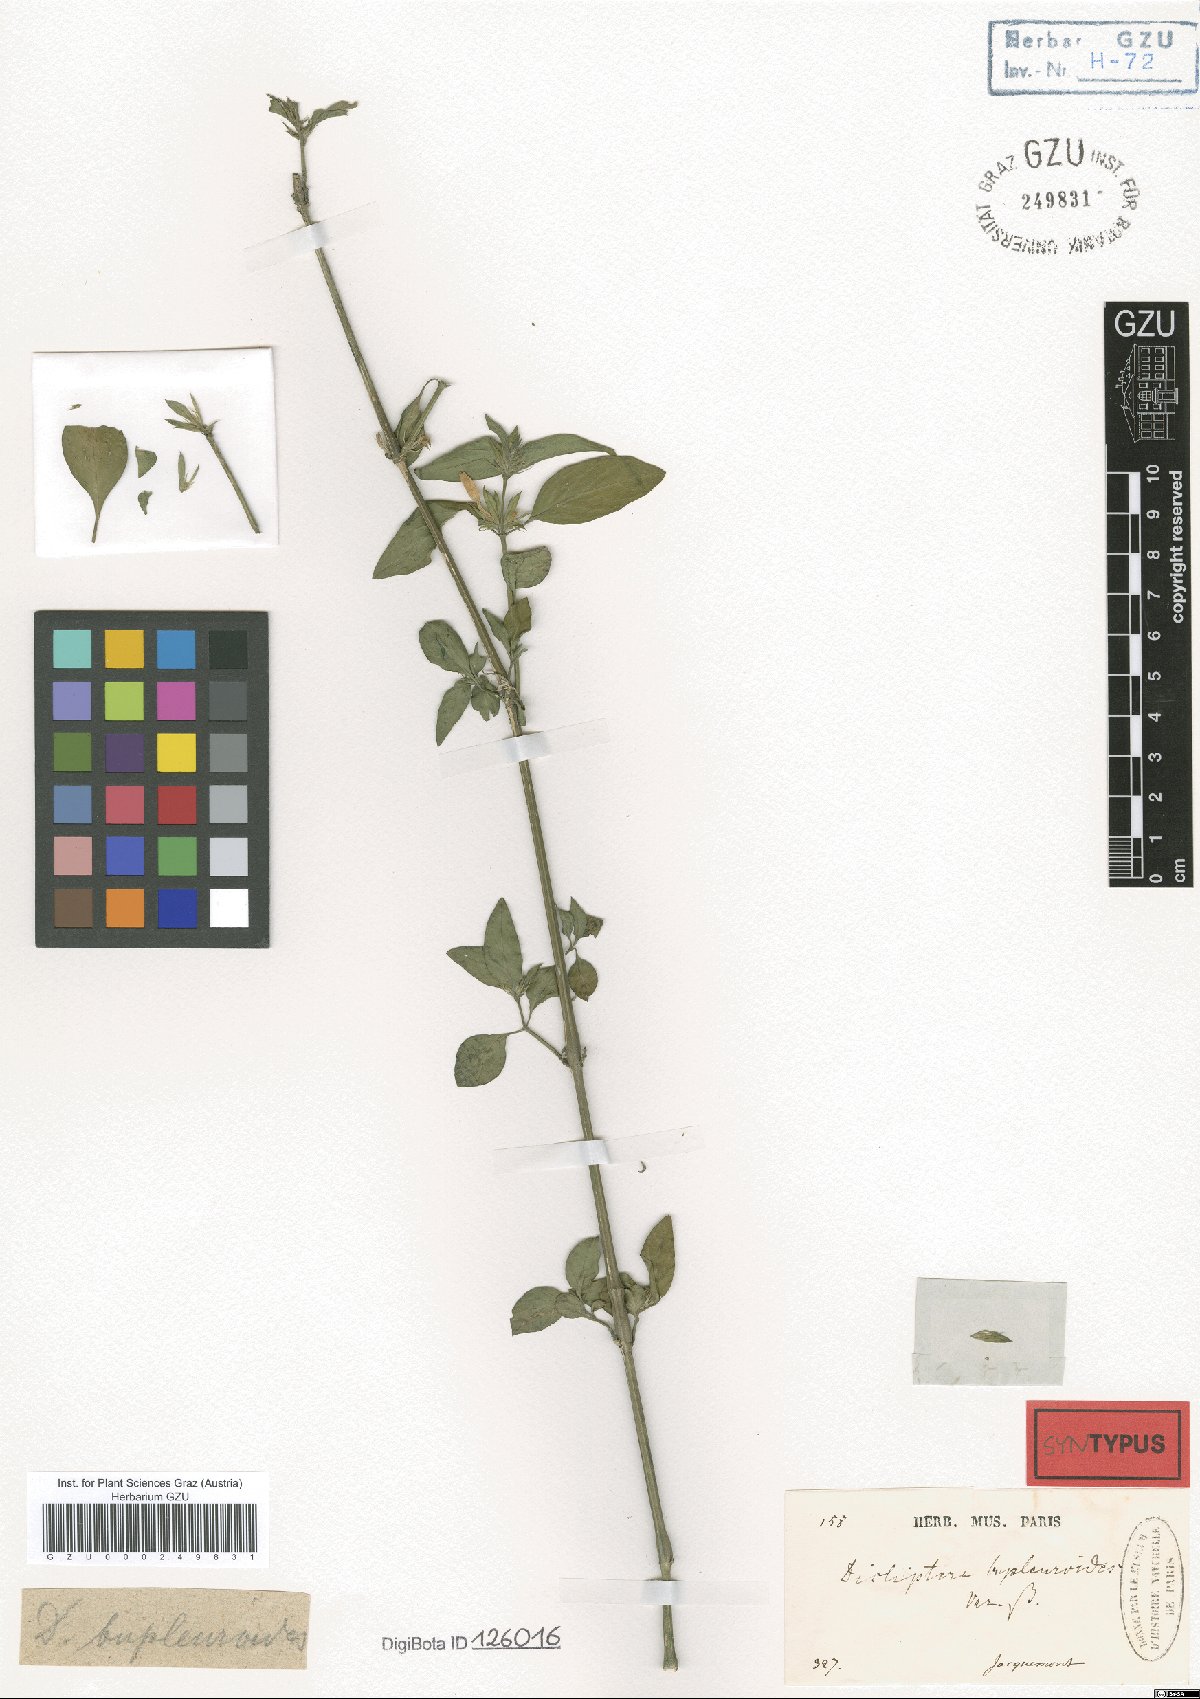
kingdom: Plantae
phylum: Tracheophyta
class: Magnoliopsida
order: Lamiales
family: Acanthaceae
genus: Dicliptera
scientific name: Dicliptera bupleuroides
